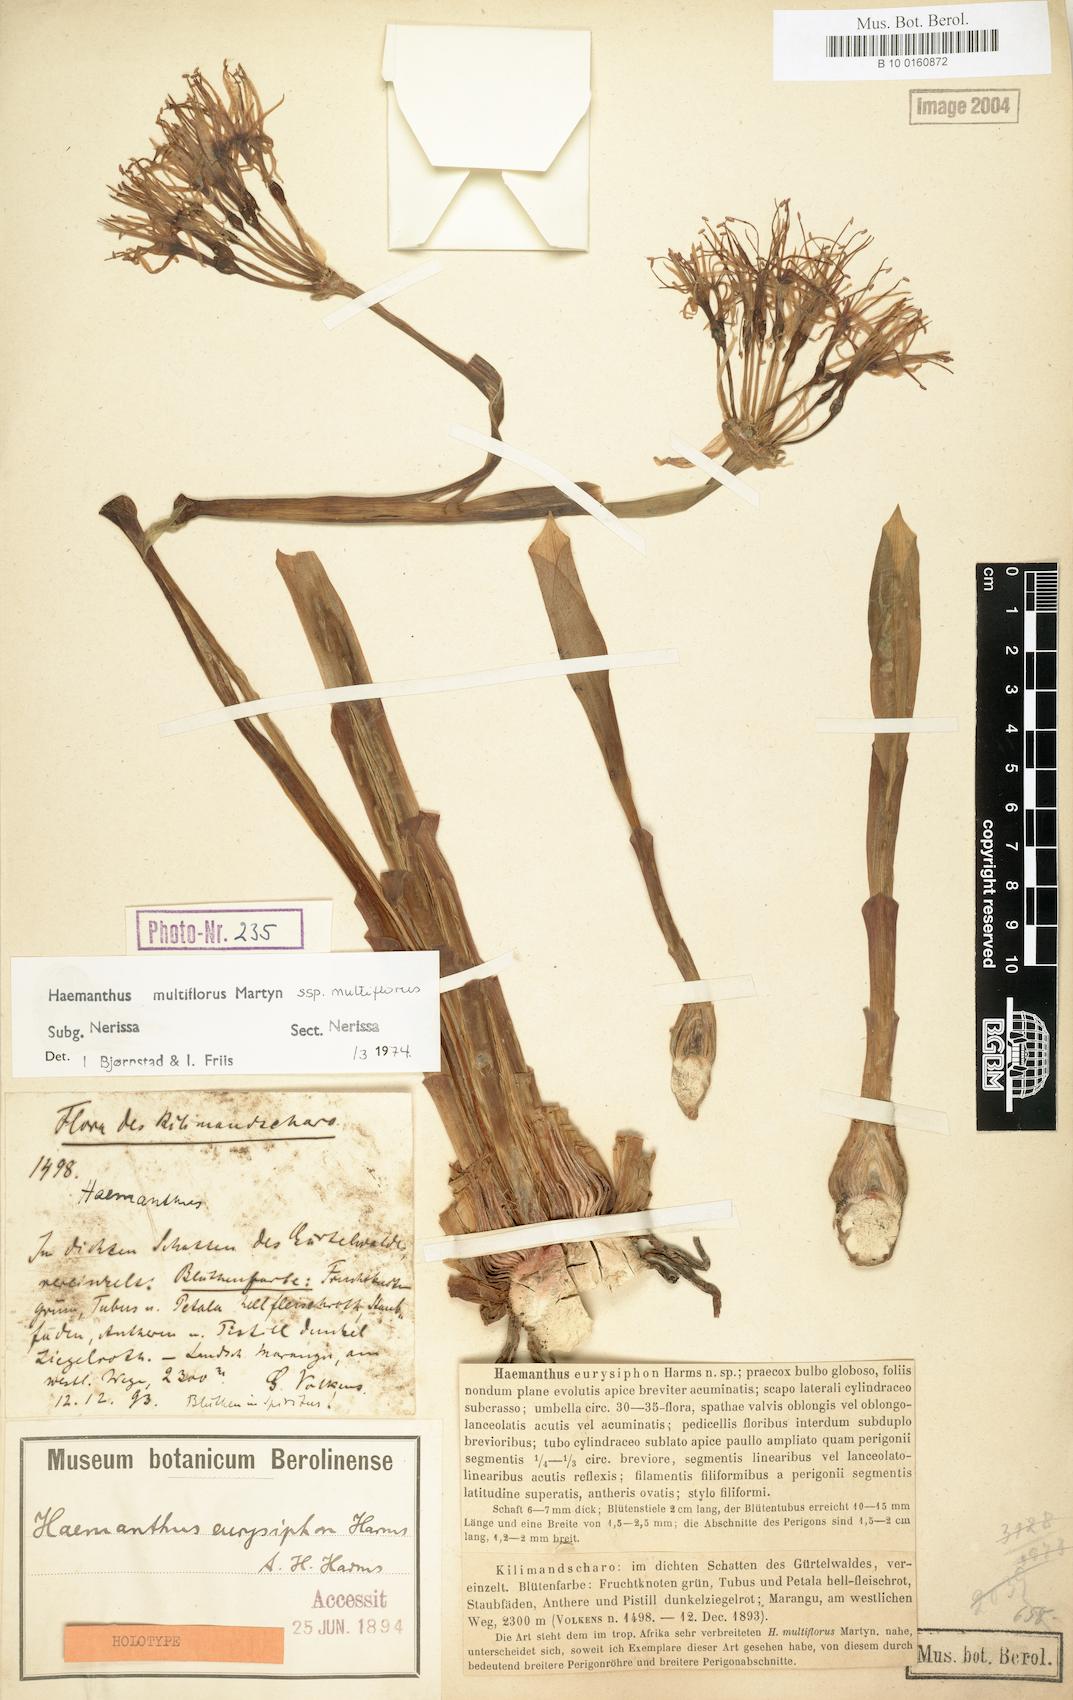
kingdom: Plantae
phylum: Tracheophyta
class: Liliopsida
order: Asparagales
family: Amaryllidaceae
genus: Scadoxus
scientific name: Scadoxus multiflorus
